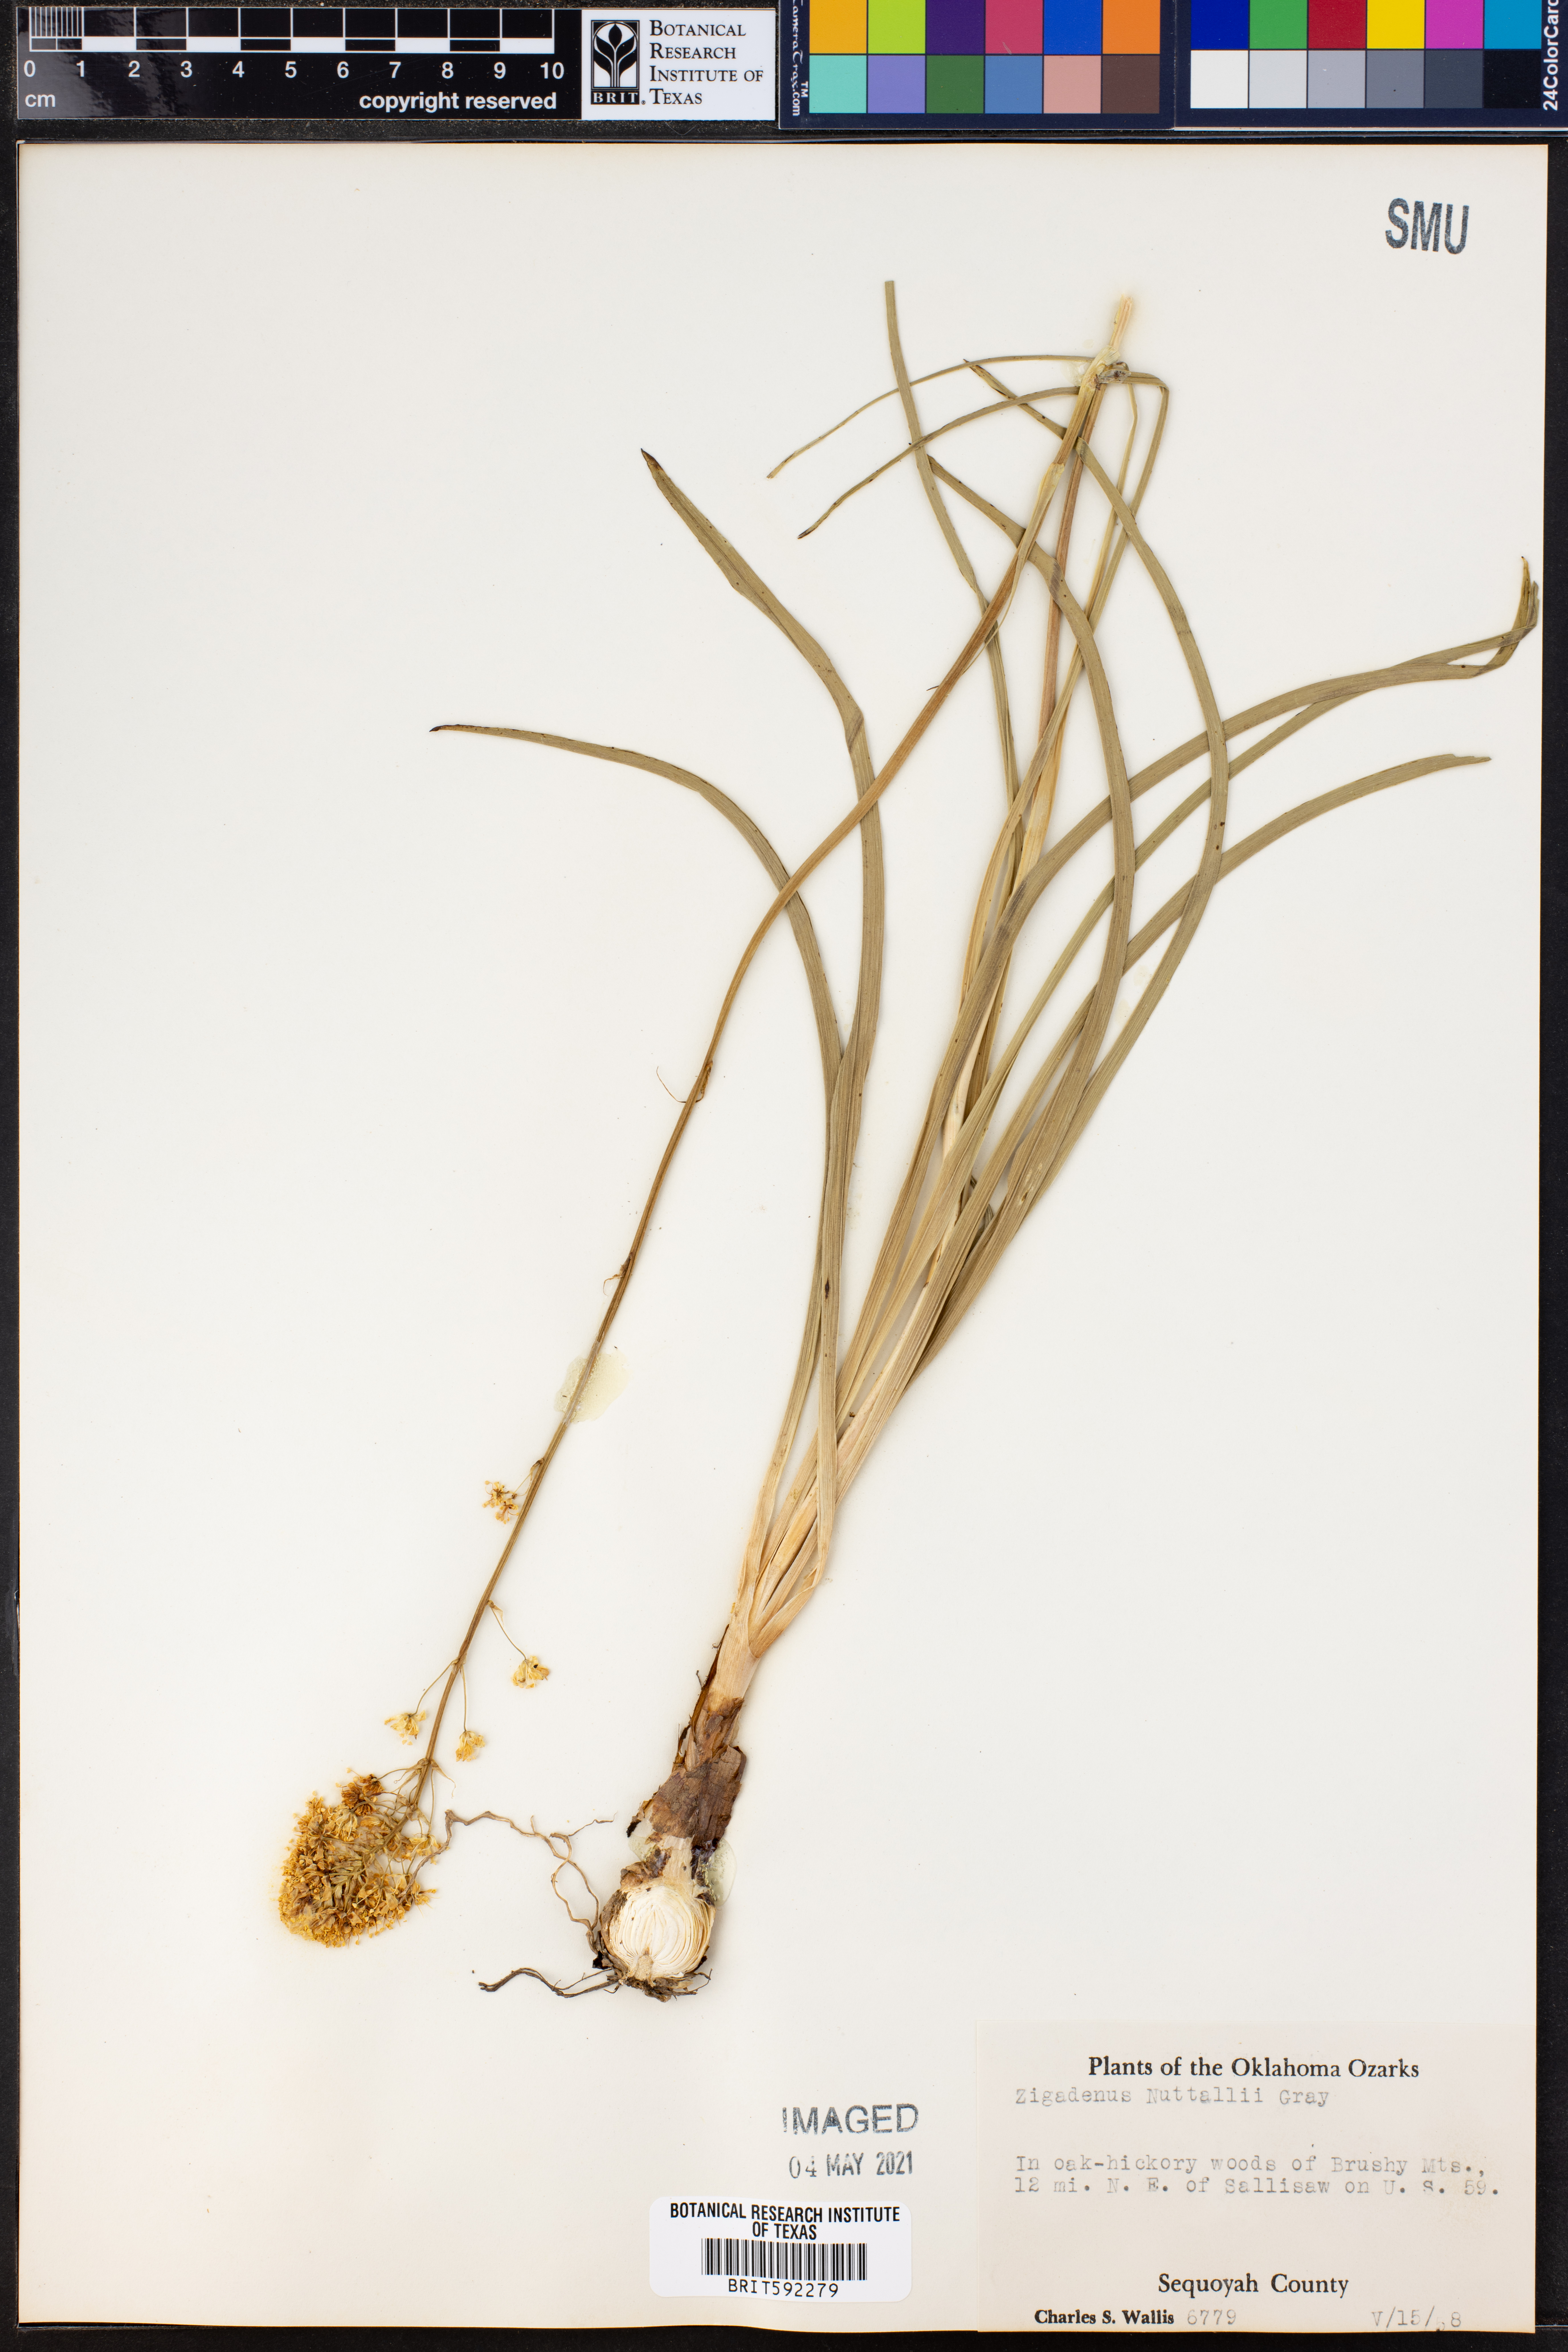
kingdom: Plantae
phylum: Tracheophyta
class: Liliopsida
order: Liliales
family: Melanthiaceae
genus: Toxicoscordion
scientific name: Toxicoscordion nuttallii
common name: Poison sego
